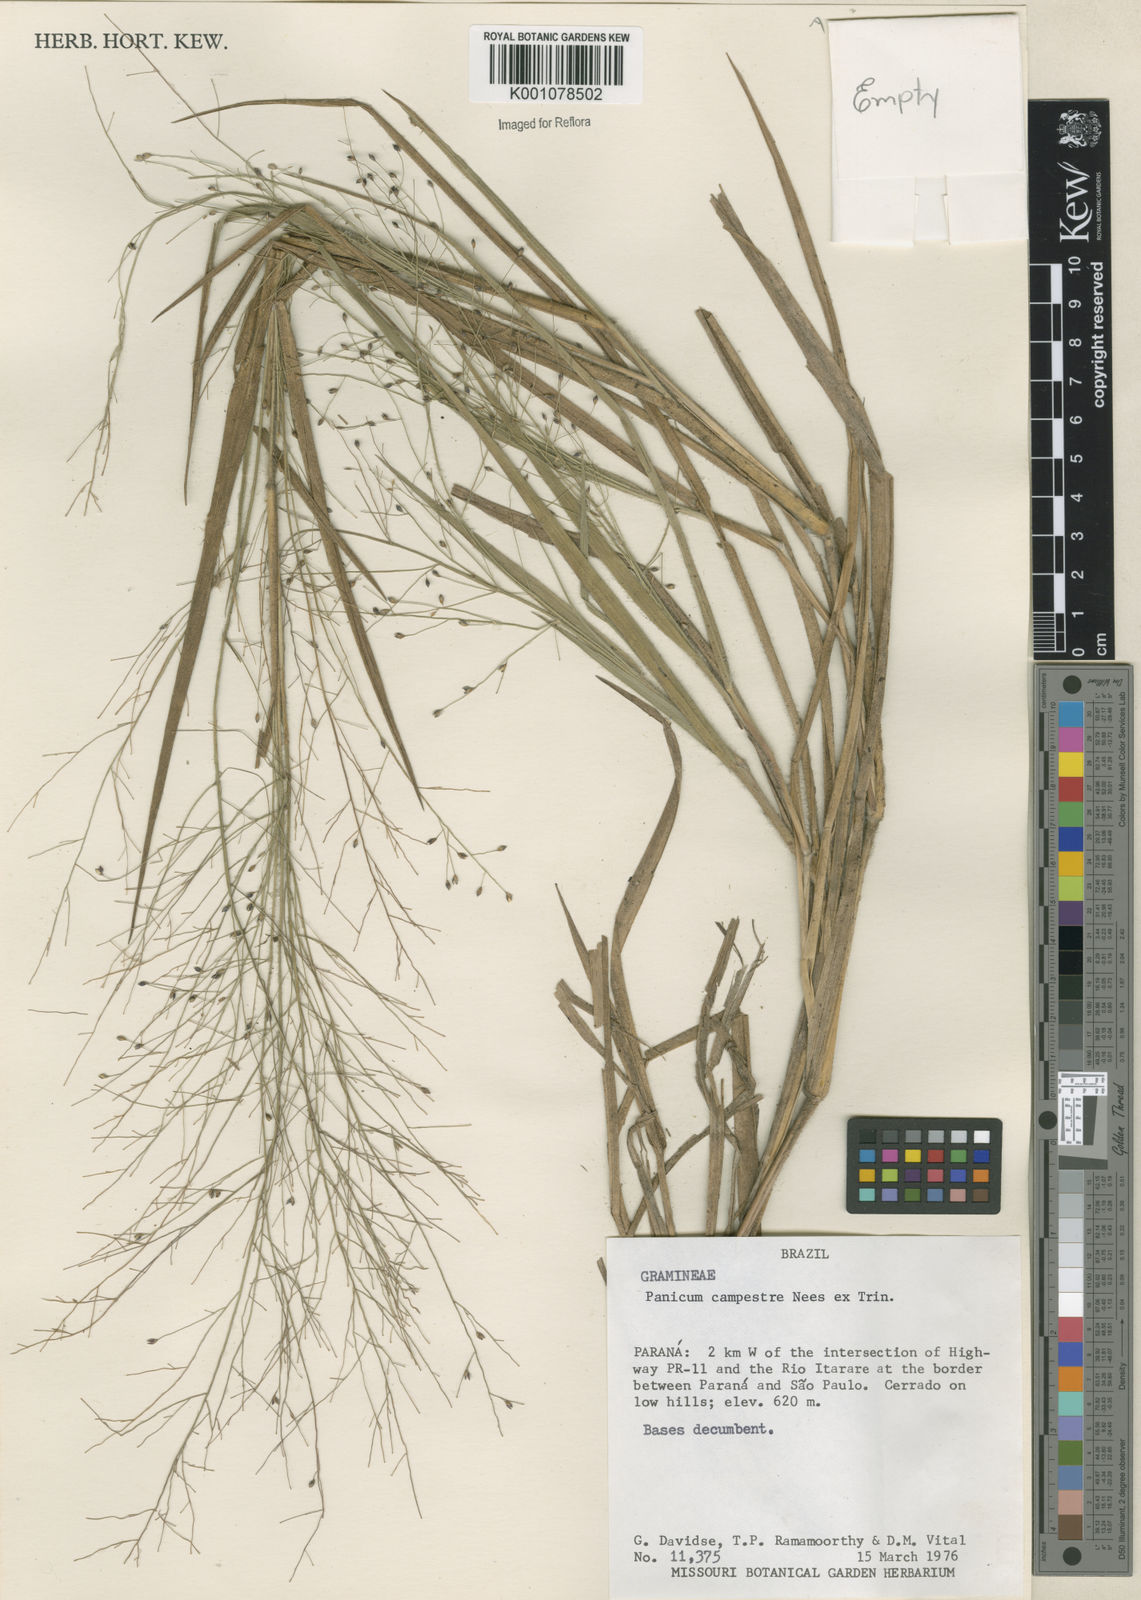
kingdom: Plantae
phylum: Tracheophyta
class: Liliopsida
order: Poales
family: Poaceae
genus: Panicum
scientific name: Panicum campestre
